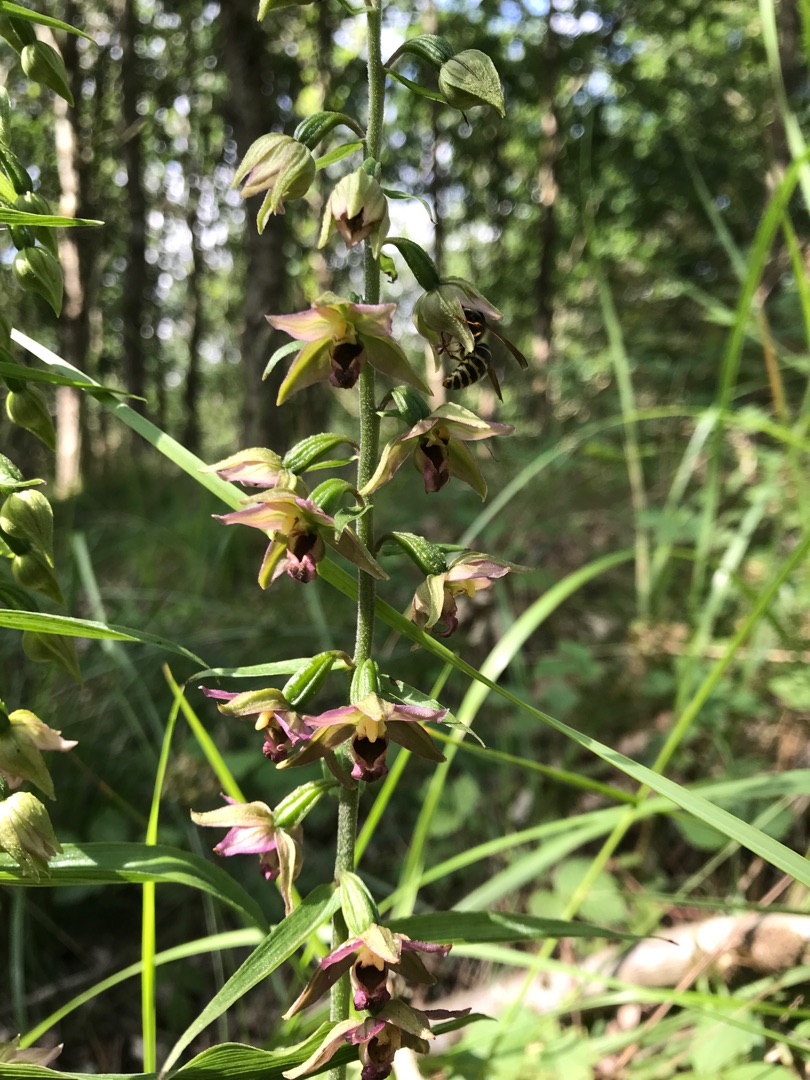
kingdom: Plantae
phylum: Tracheophyta
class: Liliopsida
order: Asparagales
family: Orchidaceae
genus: Epipactis
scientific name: Epipactis helleborine
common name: Skov-hullæbe
